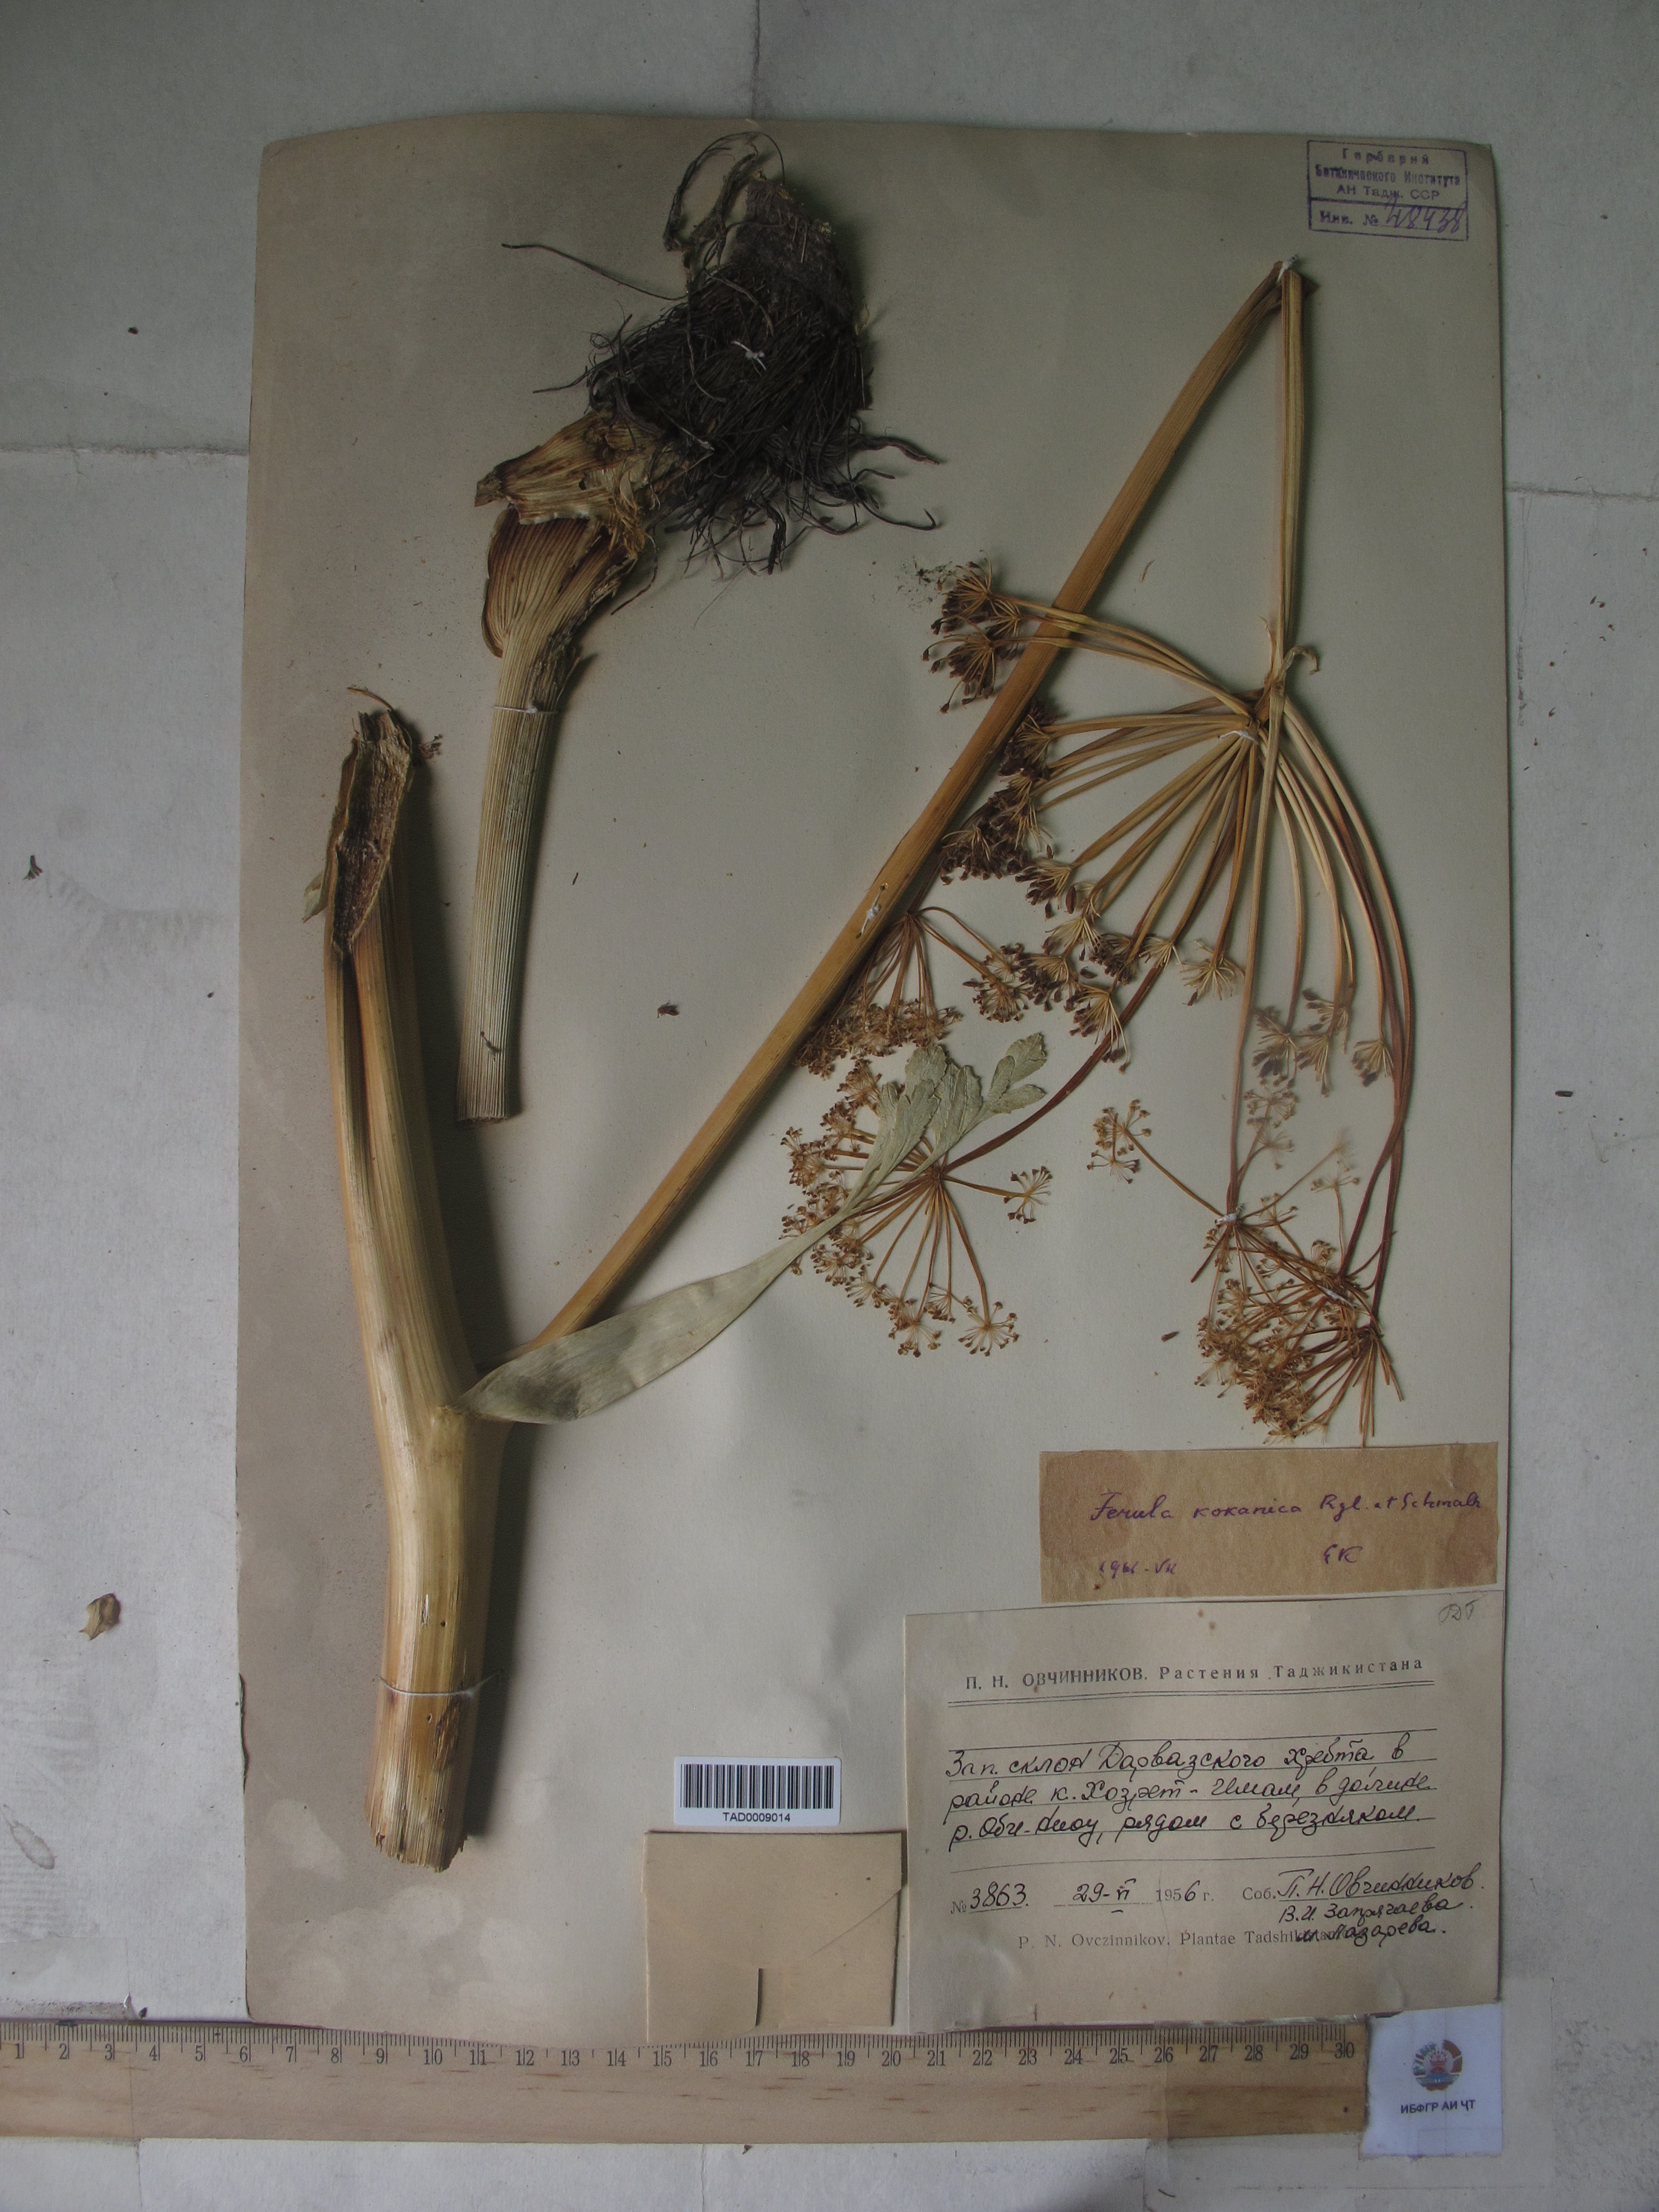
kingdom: Plantae
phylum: Tracheophyta
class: Magnoliopsida
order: Apiales
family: Apiaceae
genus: Ferula
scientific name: Ferula kokanica
